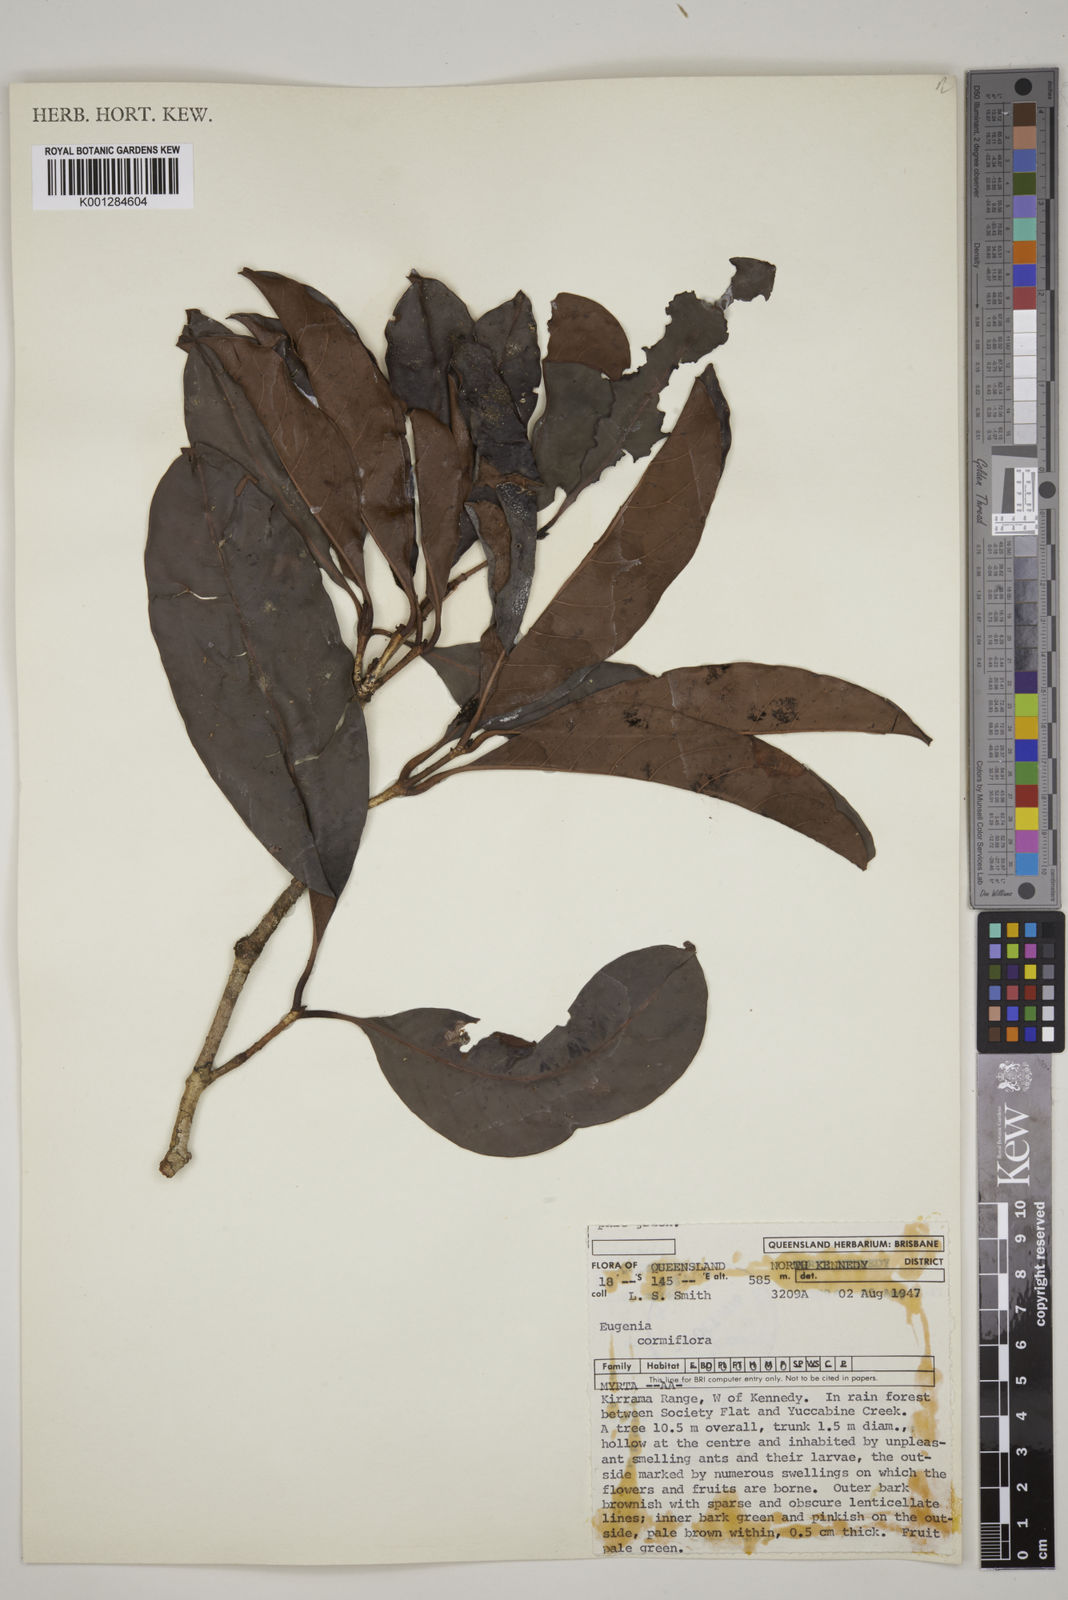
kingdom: Plantae
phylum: Tracheophyta
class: Magnoliopsida
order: Myrtales
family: Myrtaceae
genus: Syzygium
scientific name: Syzygium cormiflorum
